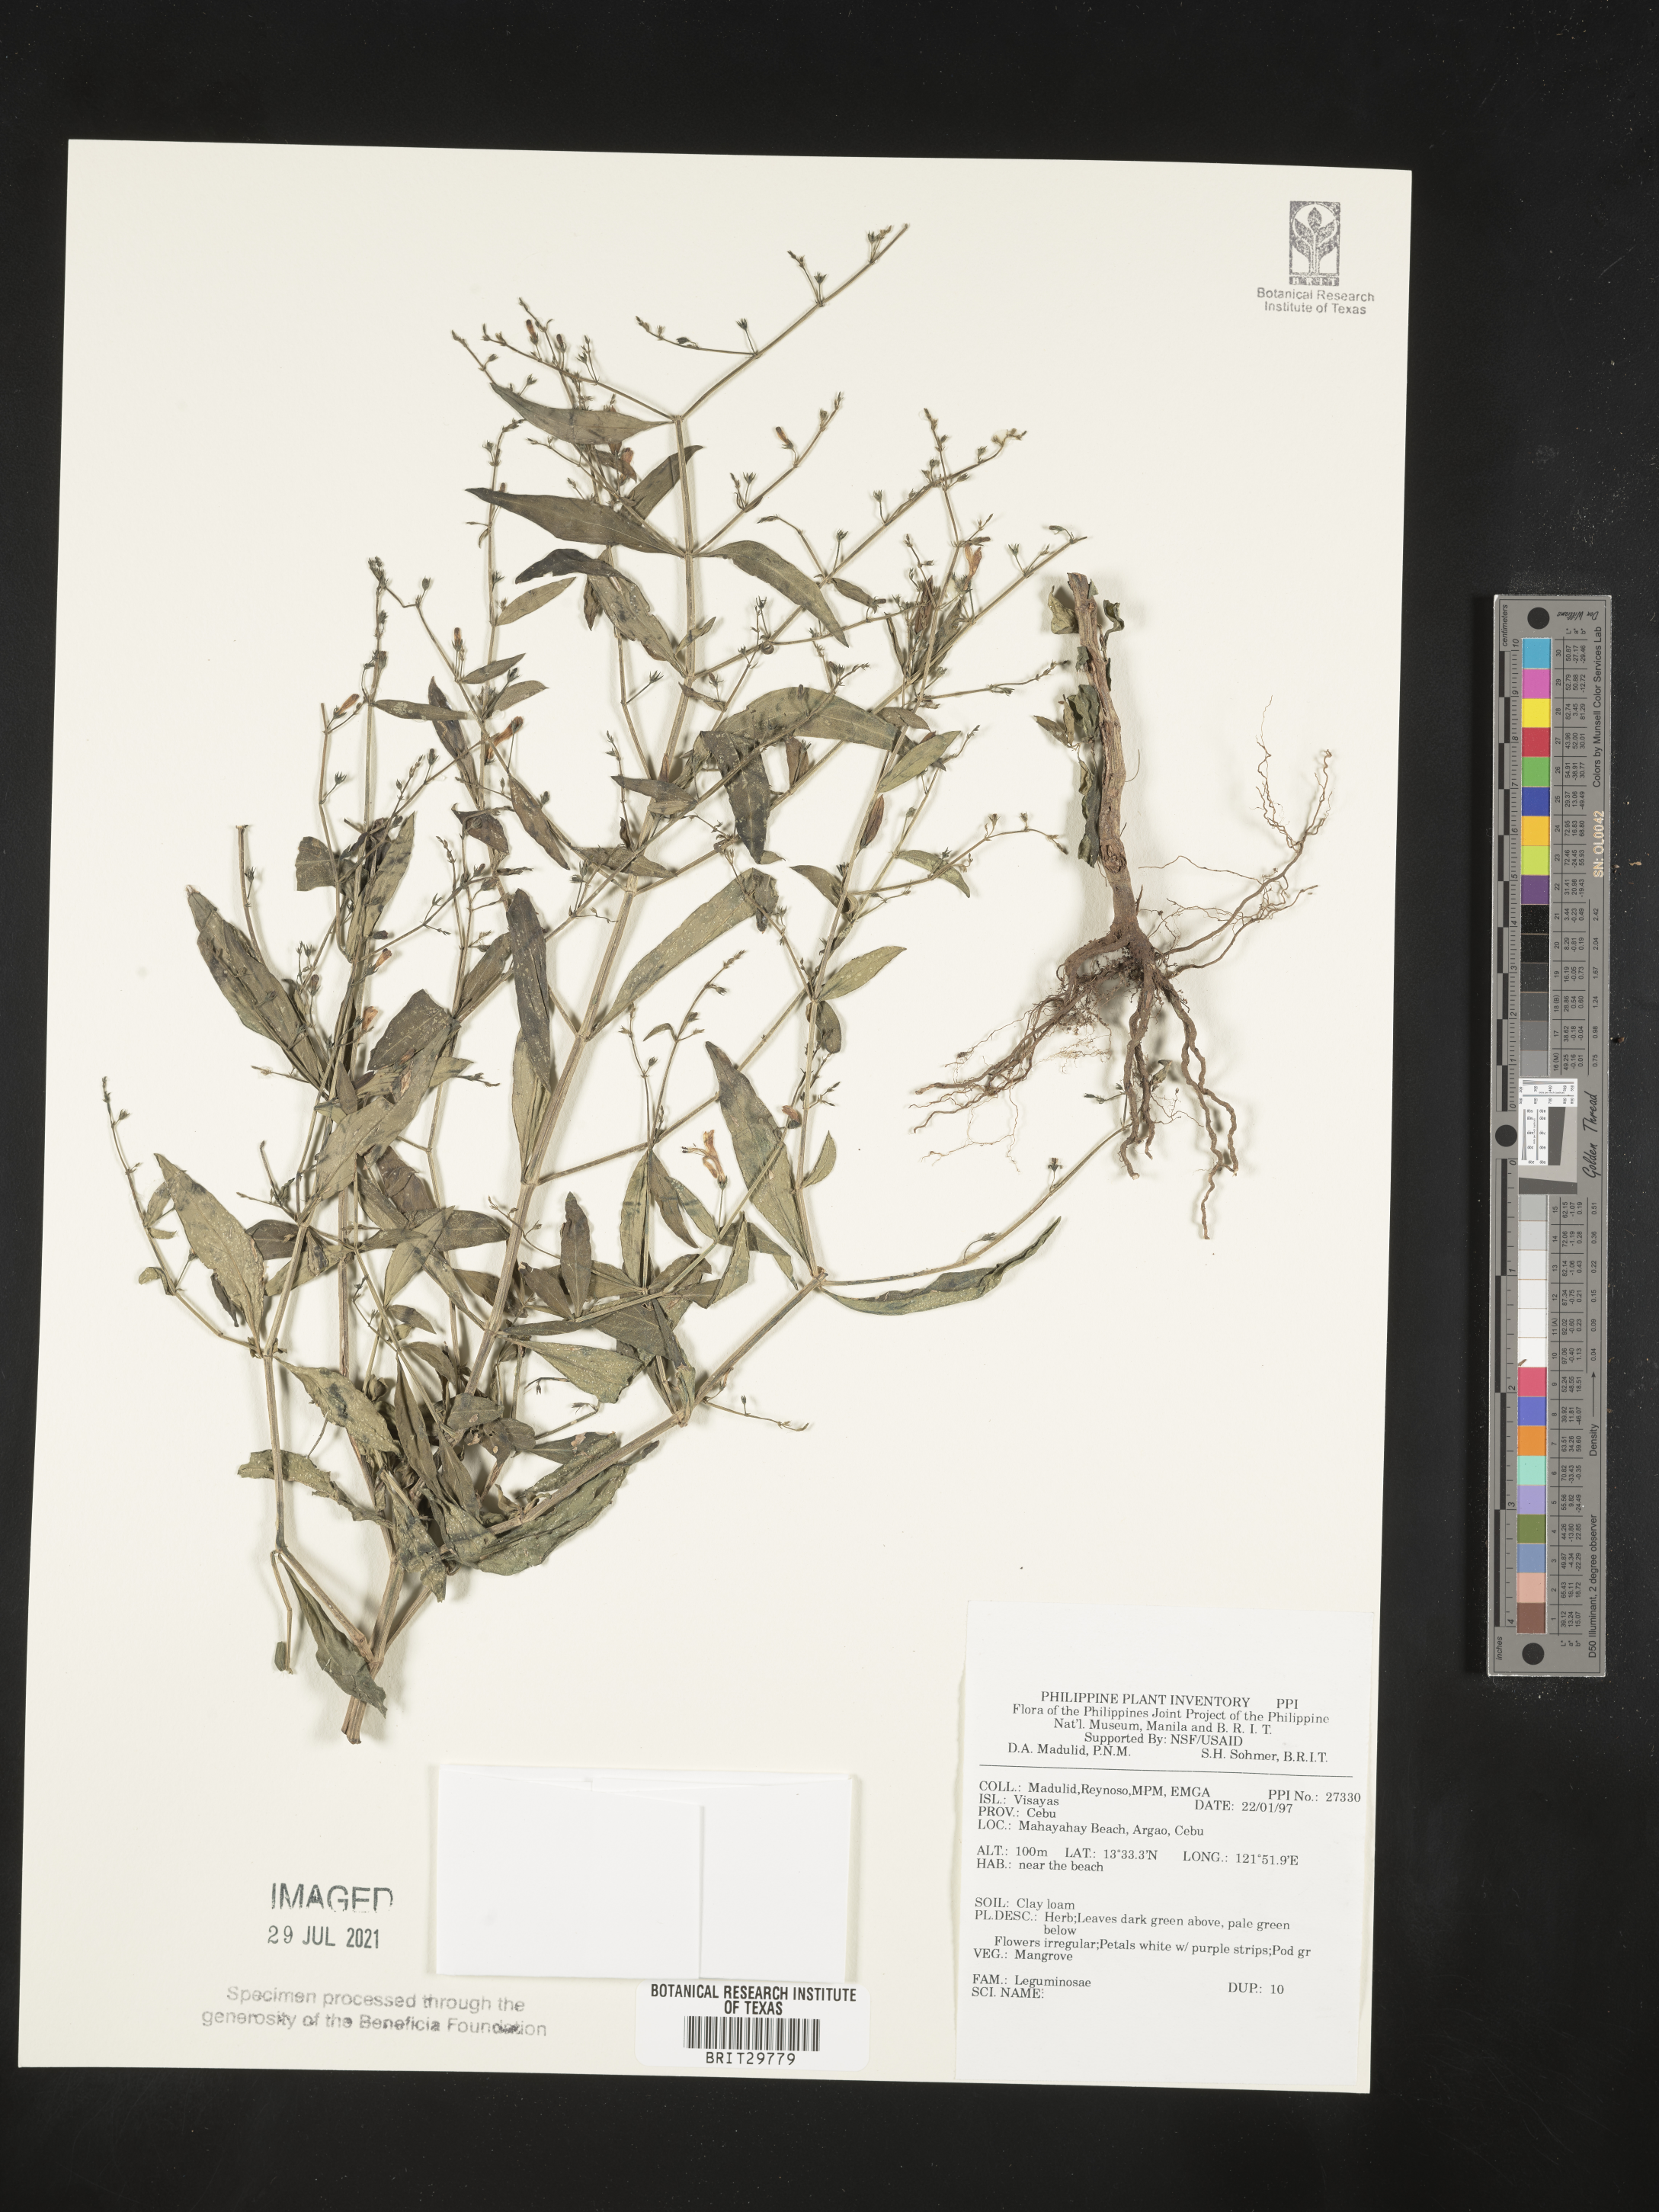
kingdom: Plantae
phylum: Tracheophyta
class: Magnoliopsida
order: Fabales
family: Fabaceae
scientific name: Fabaceae
